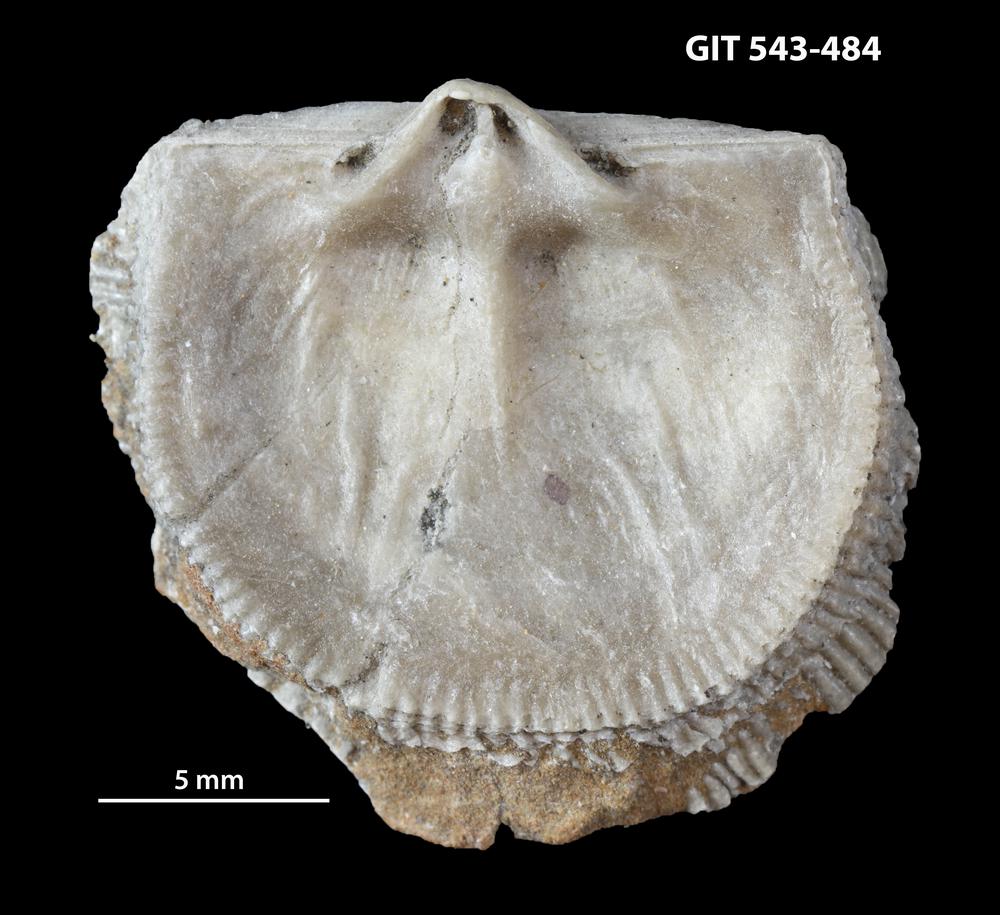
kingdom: Animalia
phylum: Brachiopoda
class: Rhynchonellata
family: Clitambonitidae
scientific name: Clitambonitidae
